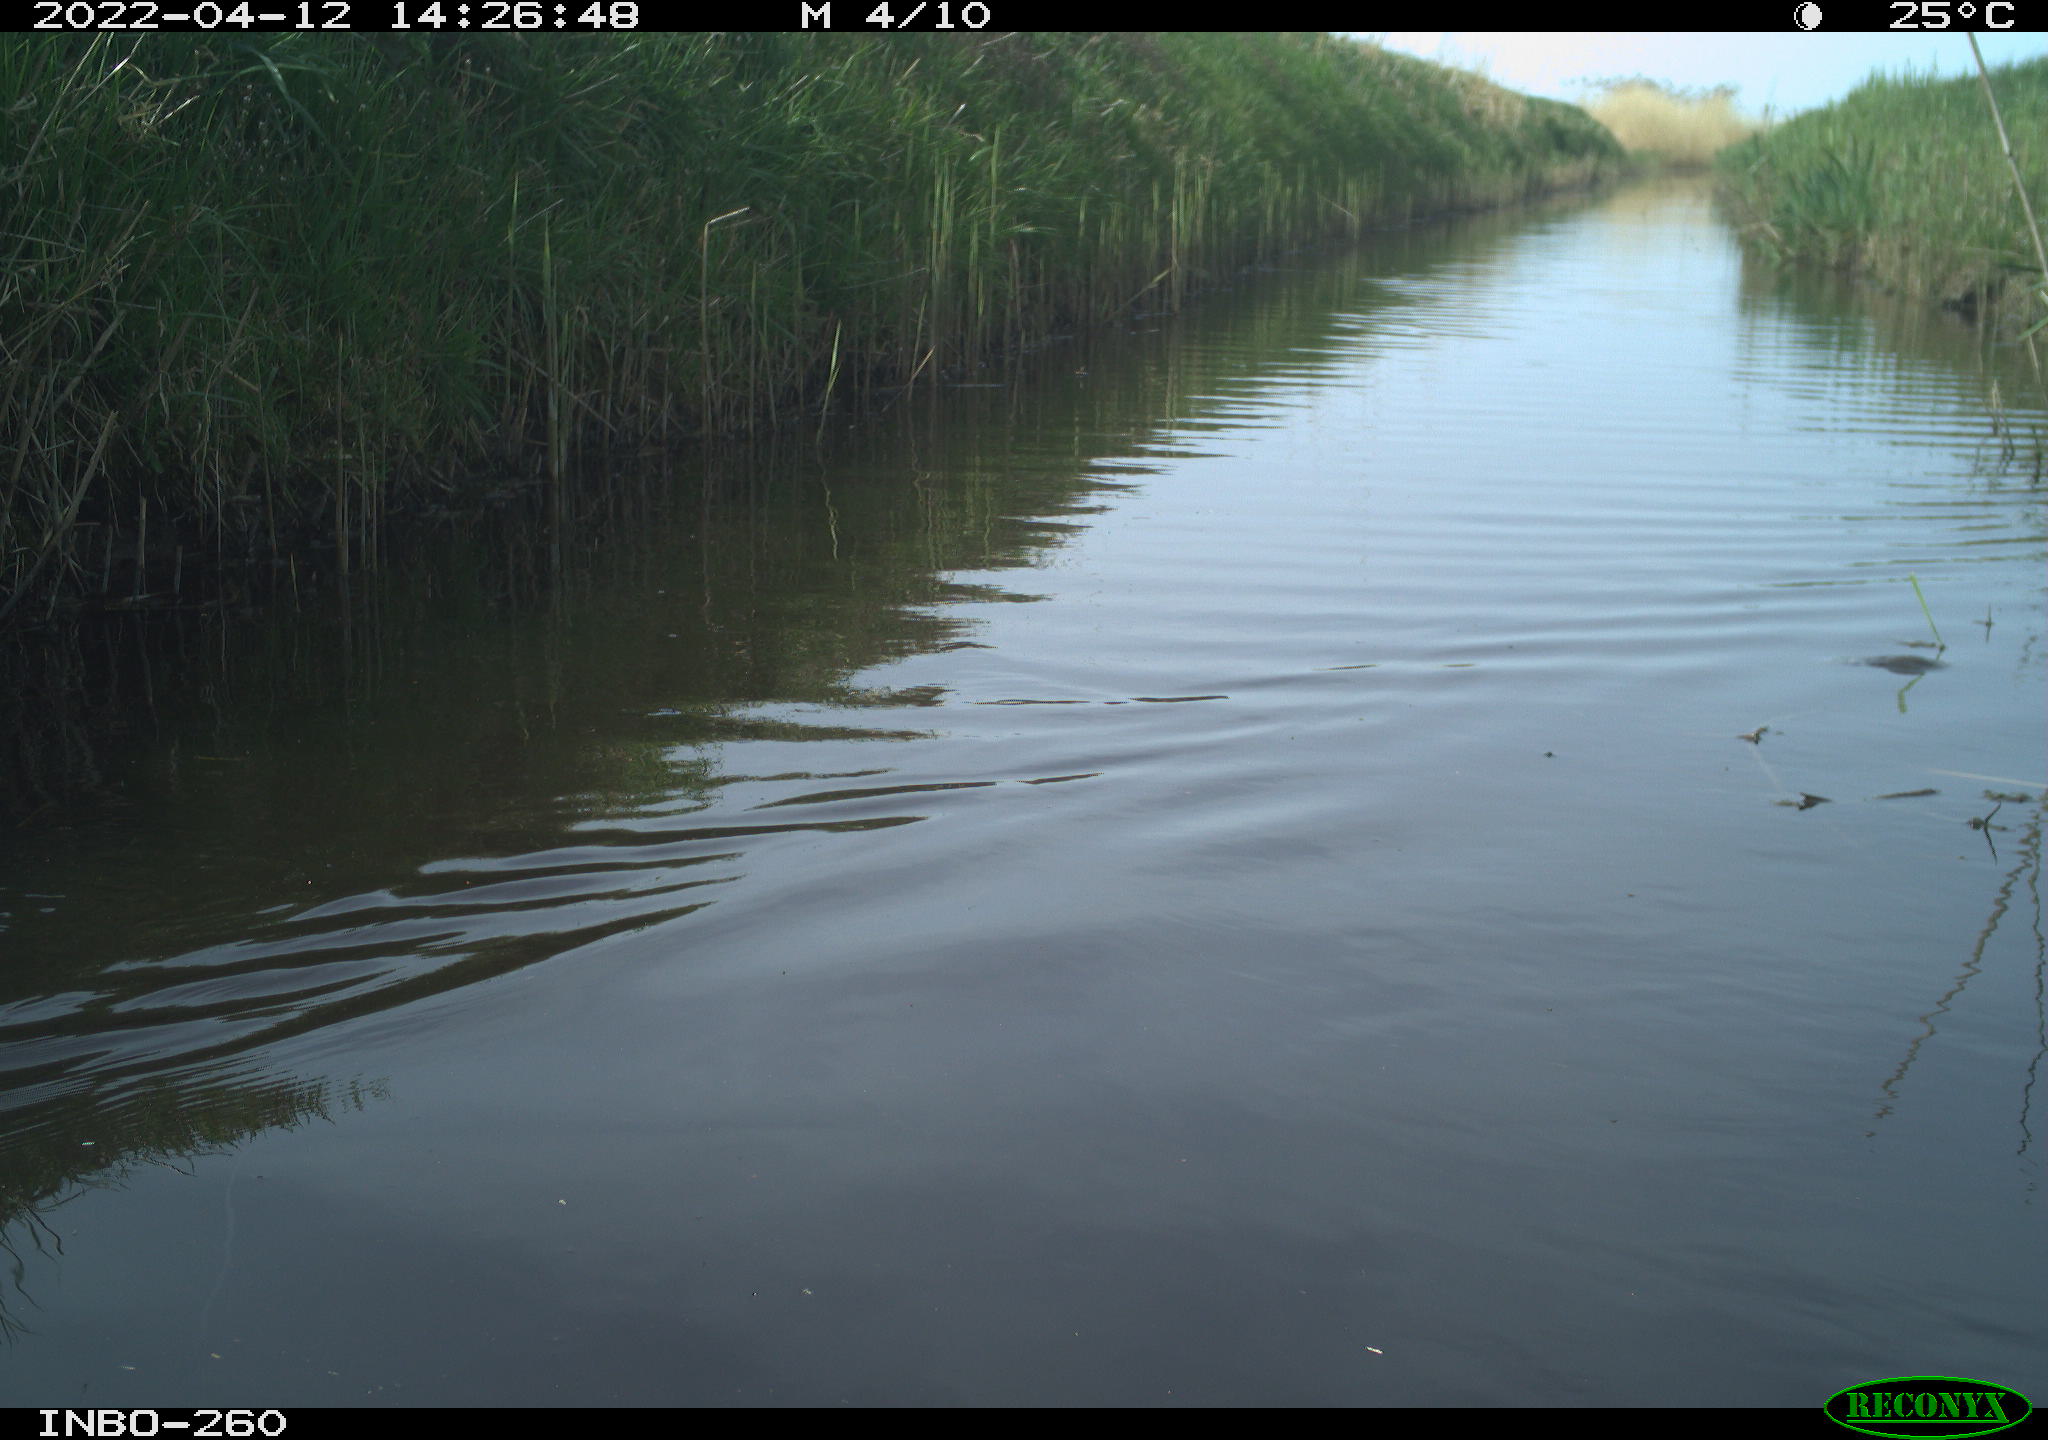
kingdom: Animalia
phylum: Chordata
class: Aves
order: Gruiformes
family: Rallidae
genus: Fulica
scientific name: Fulica atra
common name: Eurasian coot
